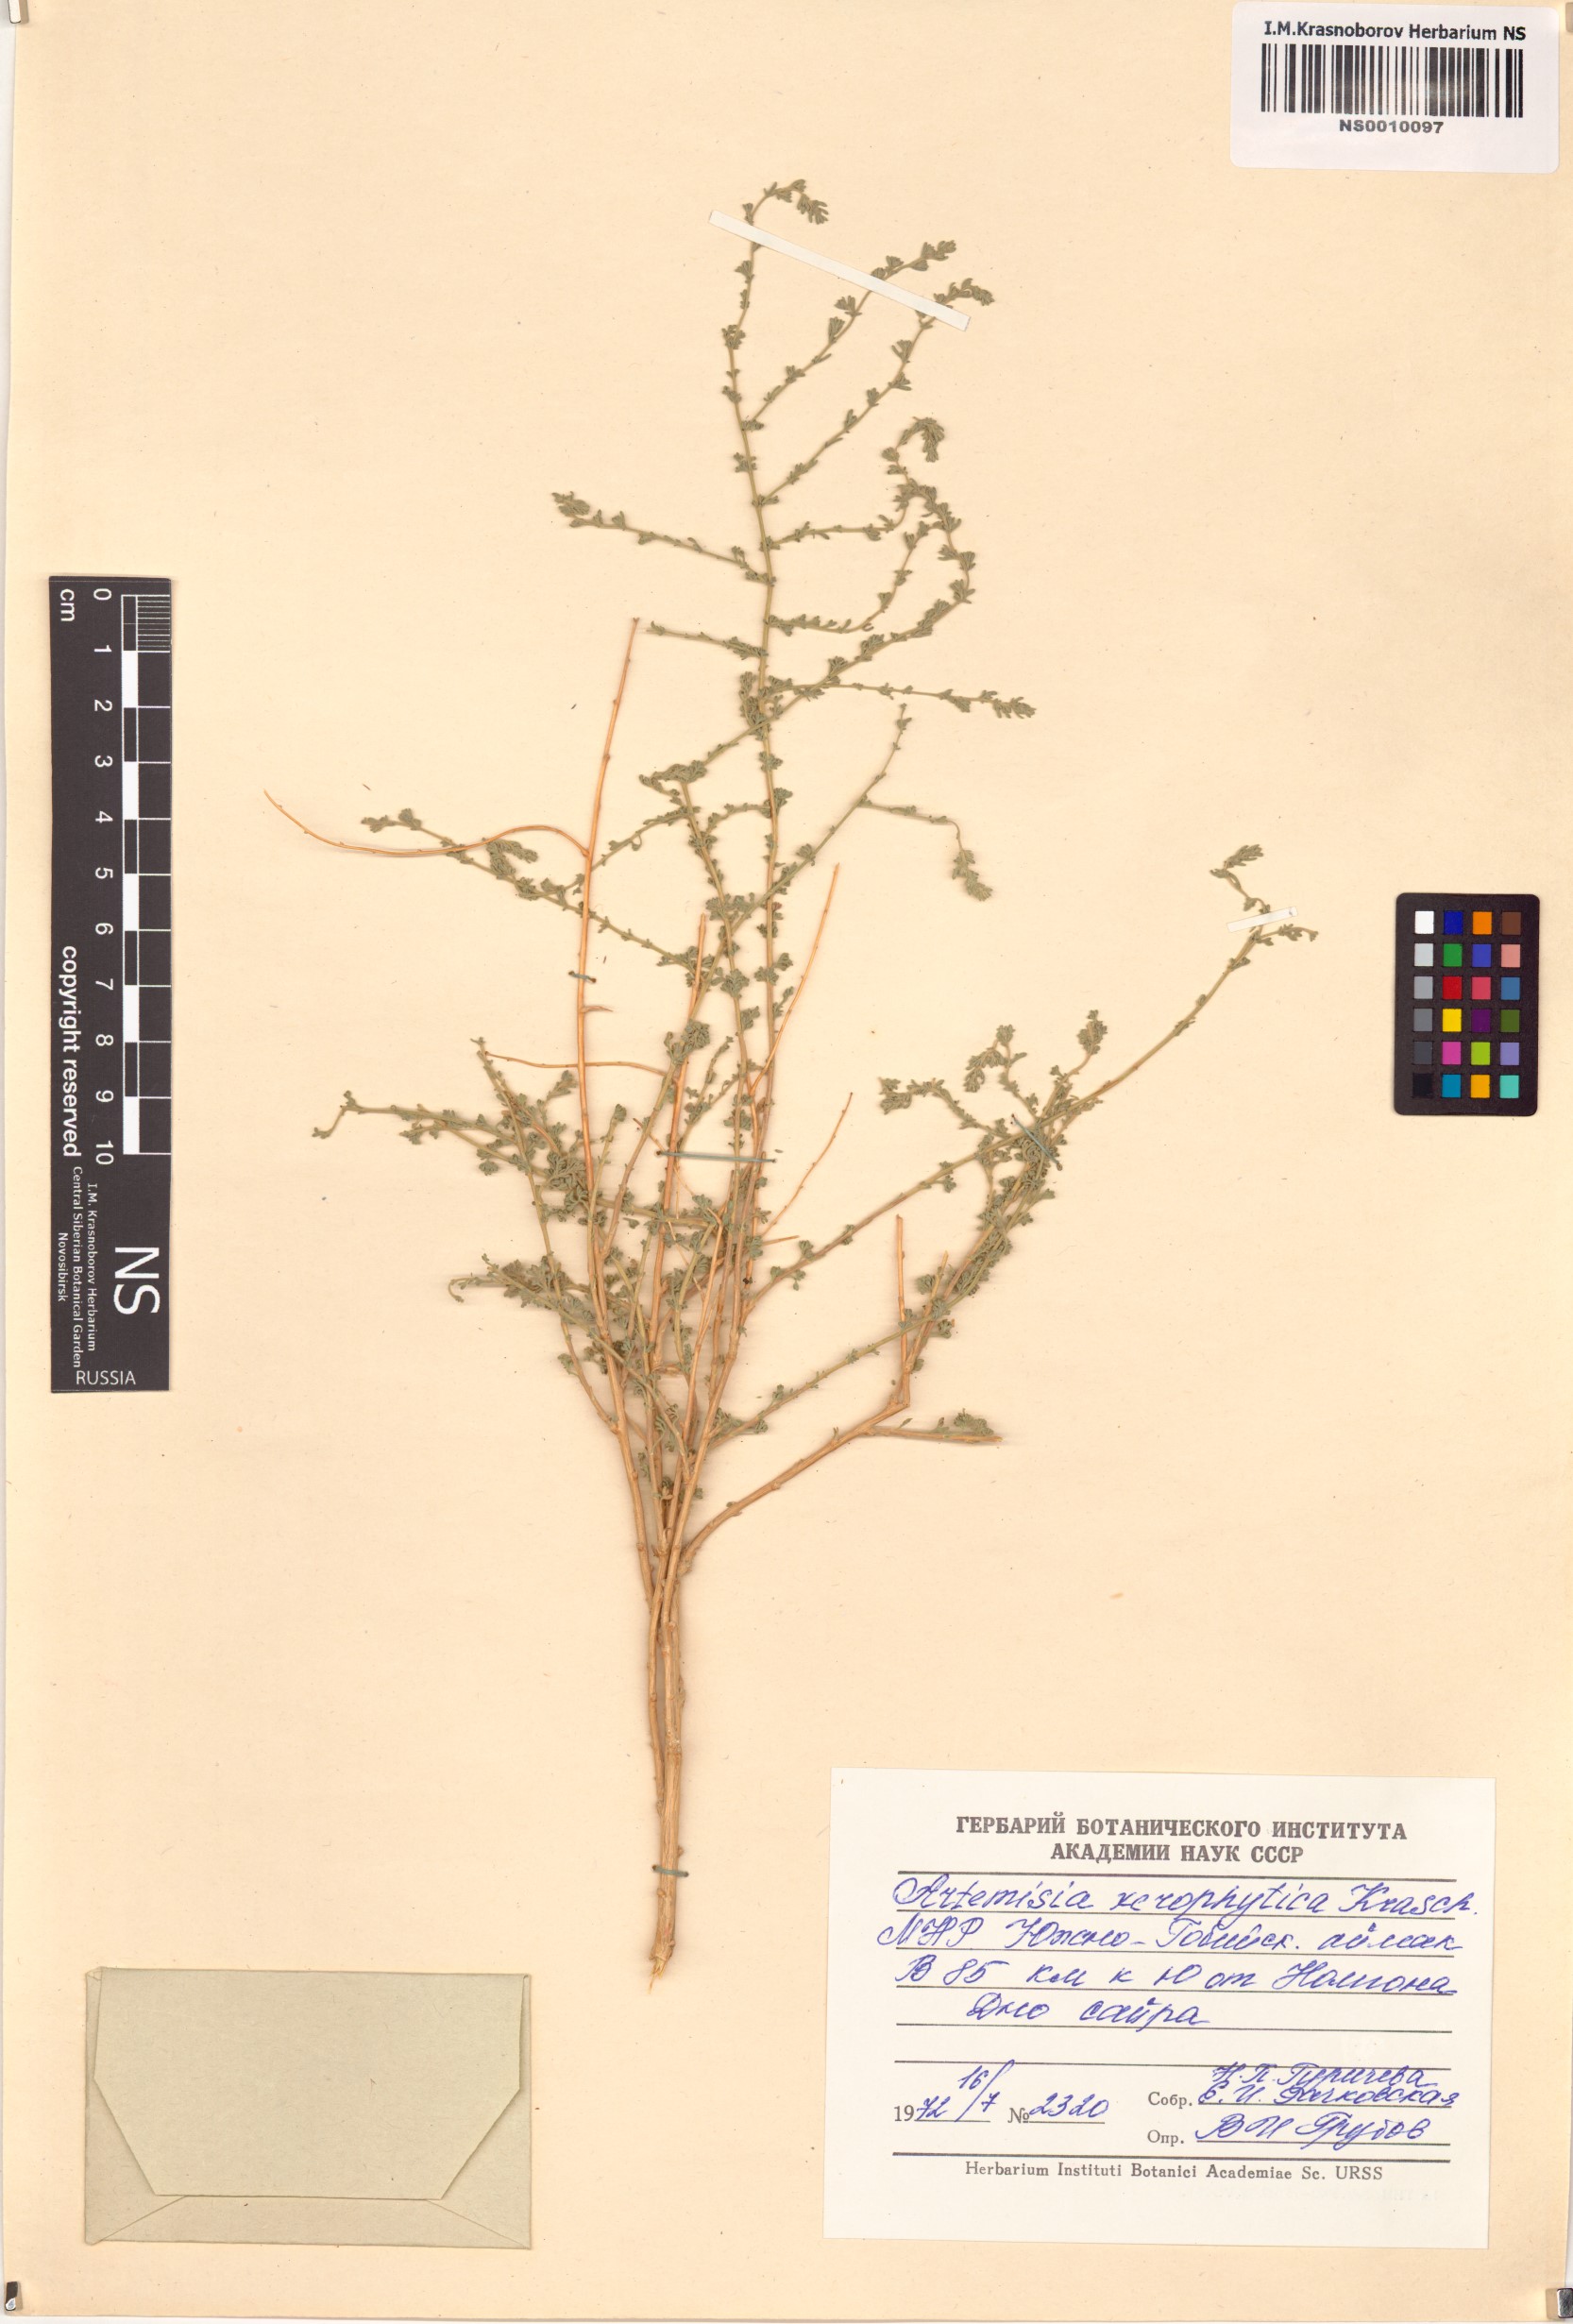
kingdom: Plantae
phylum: Tracheophyta
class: Magnoliopsida
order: Asterales
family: Asteraceae
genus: Artemisia
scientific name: Artemisia xerophytica
